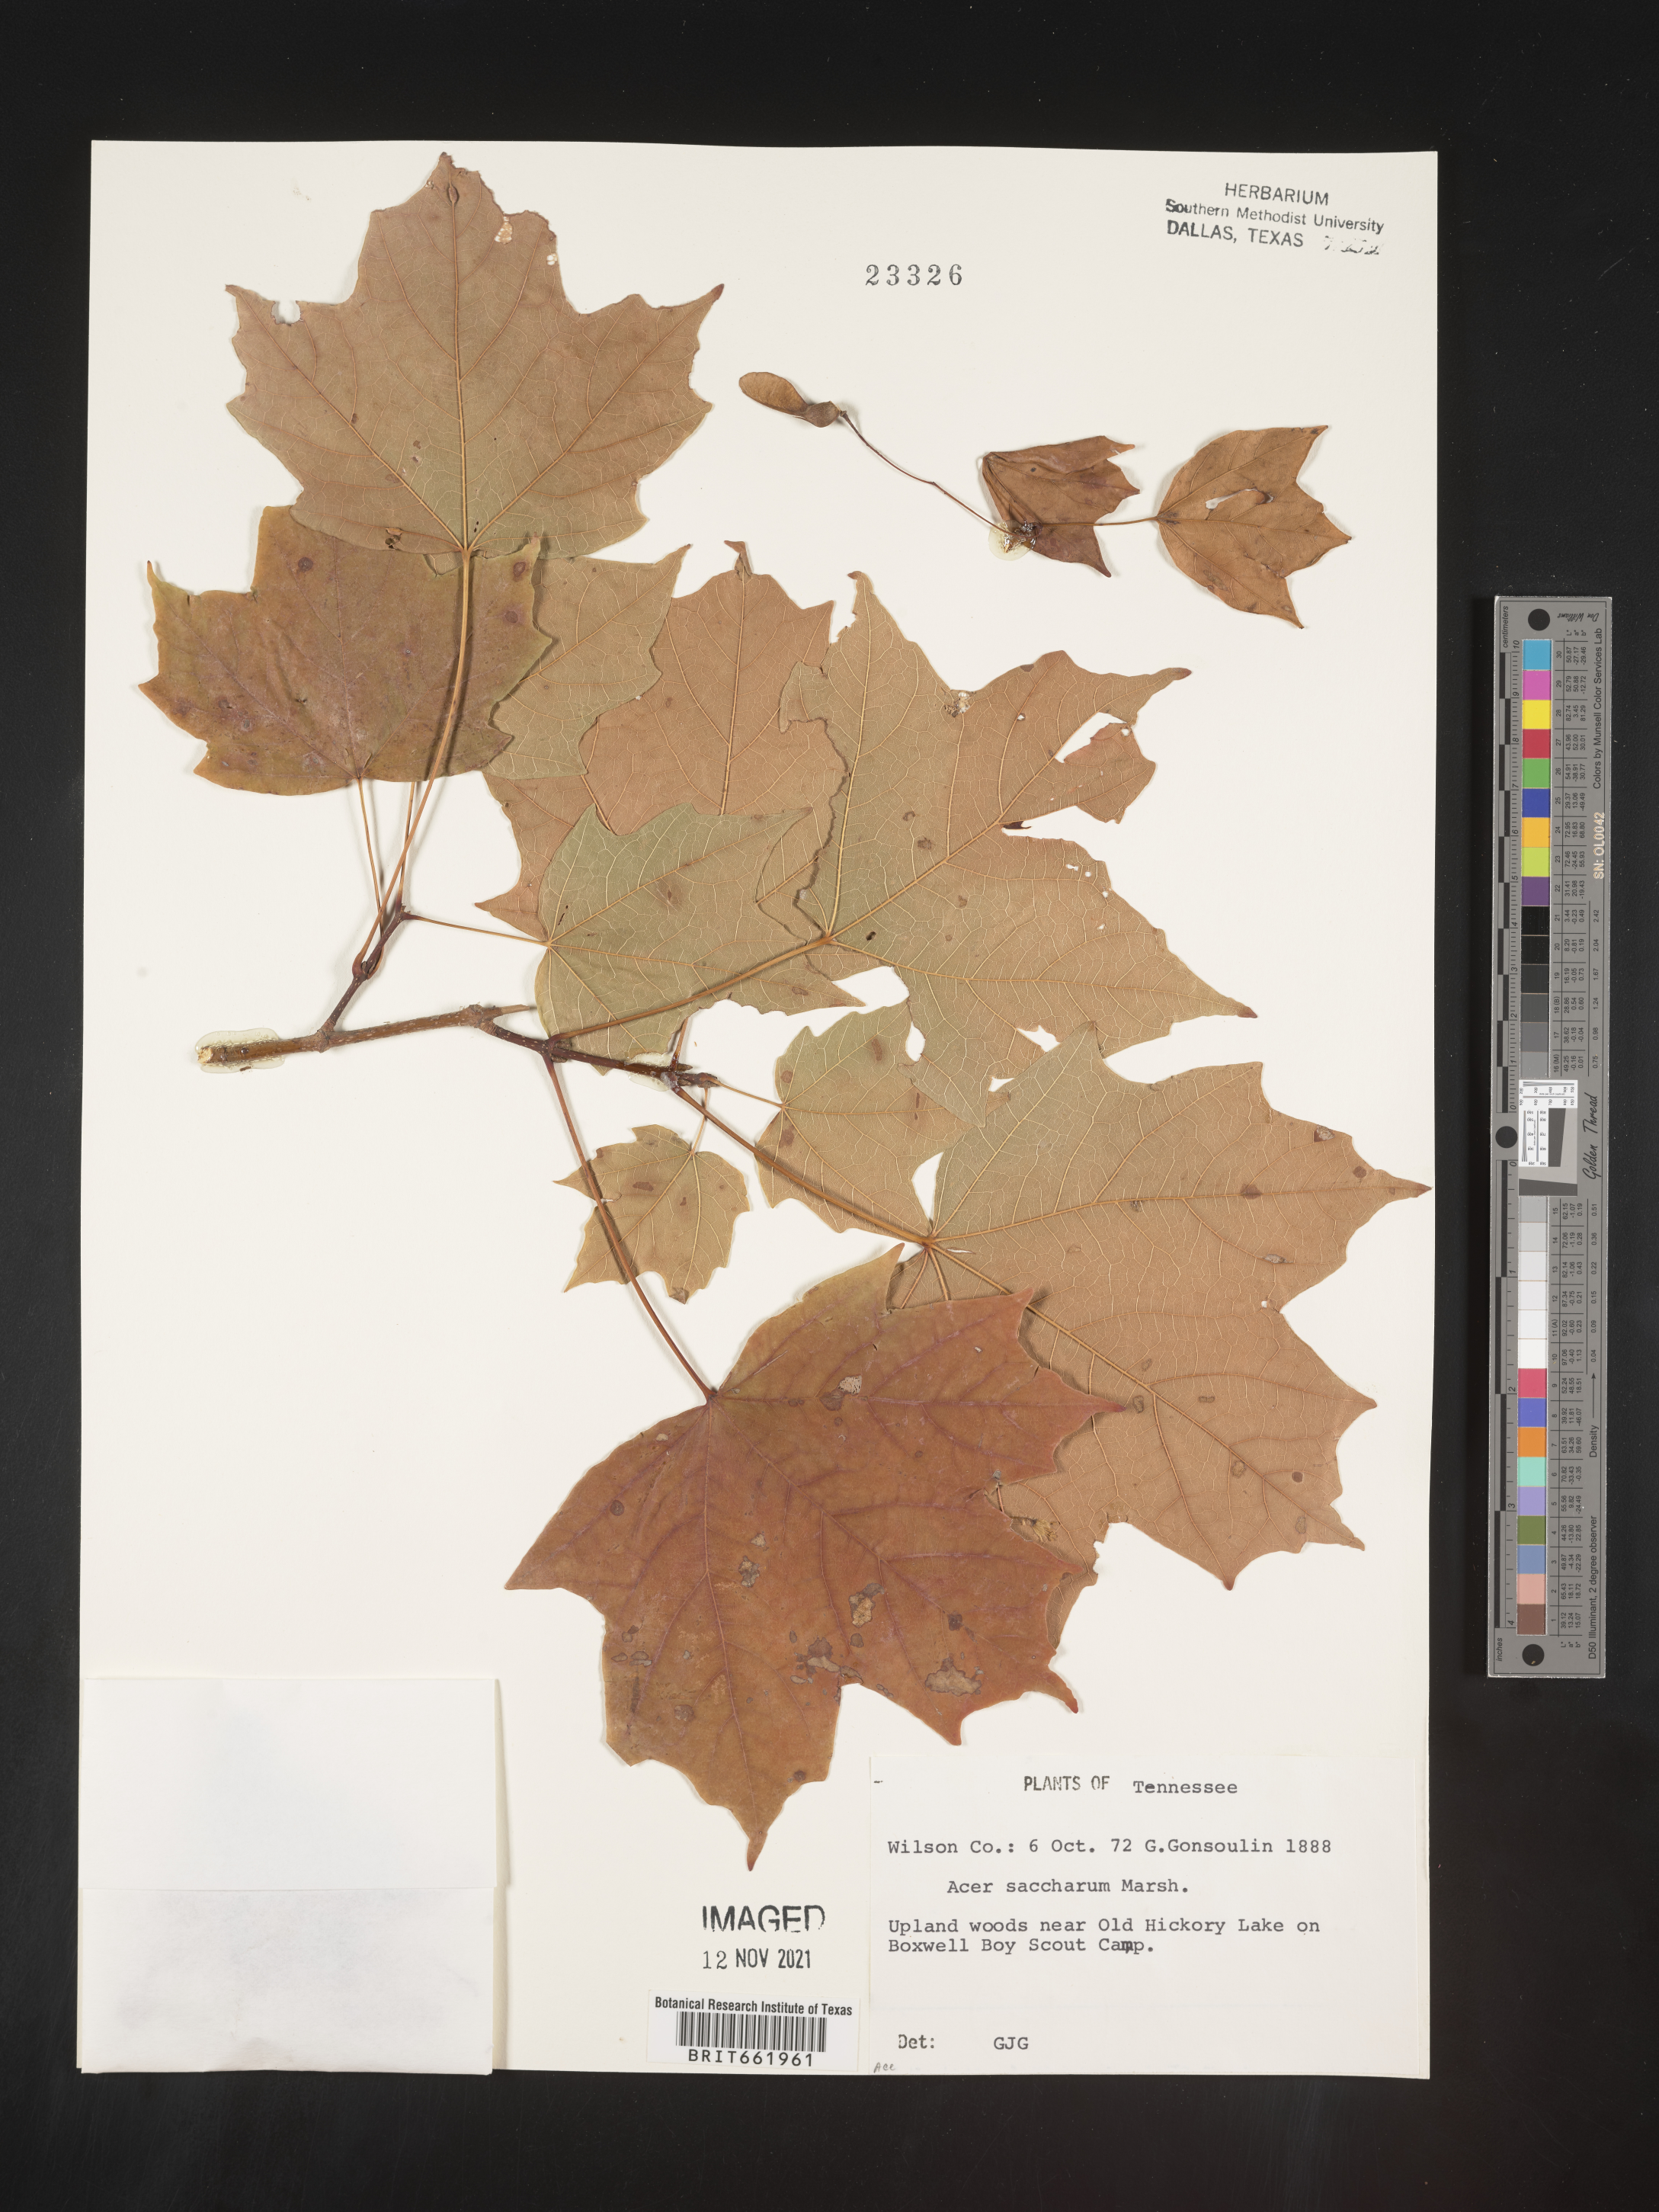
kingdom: Plantae
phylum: Tracheophyta
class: Magnoliopsida
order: Sapindales
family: Sapindaceae
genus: Acer
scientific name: Acer saccharum
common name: Sugar maple
